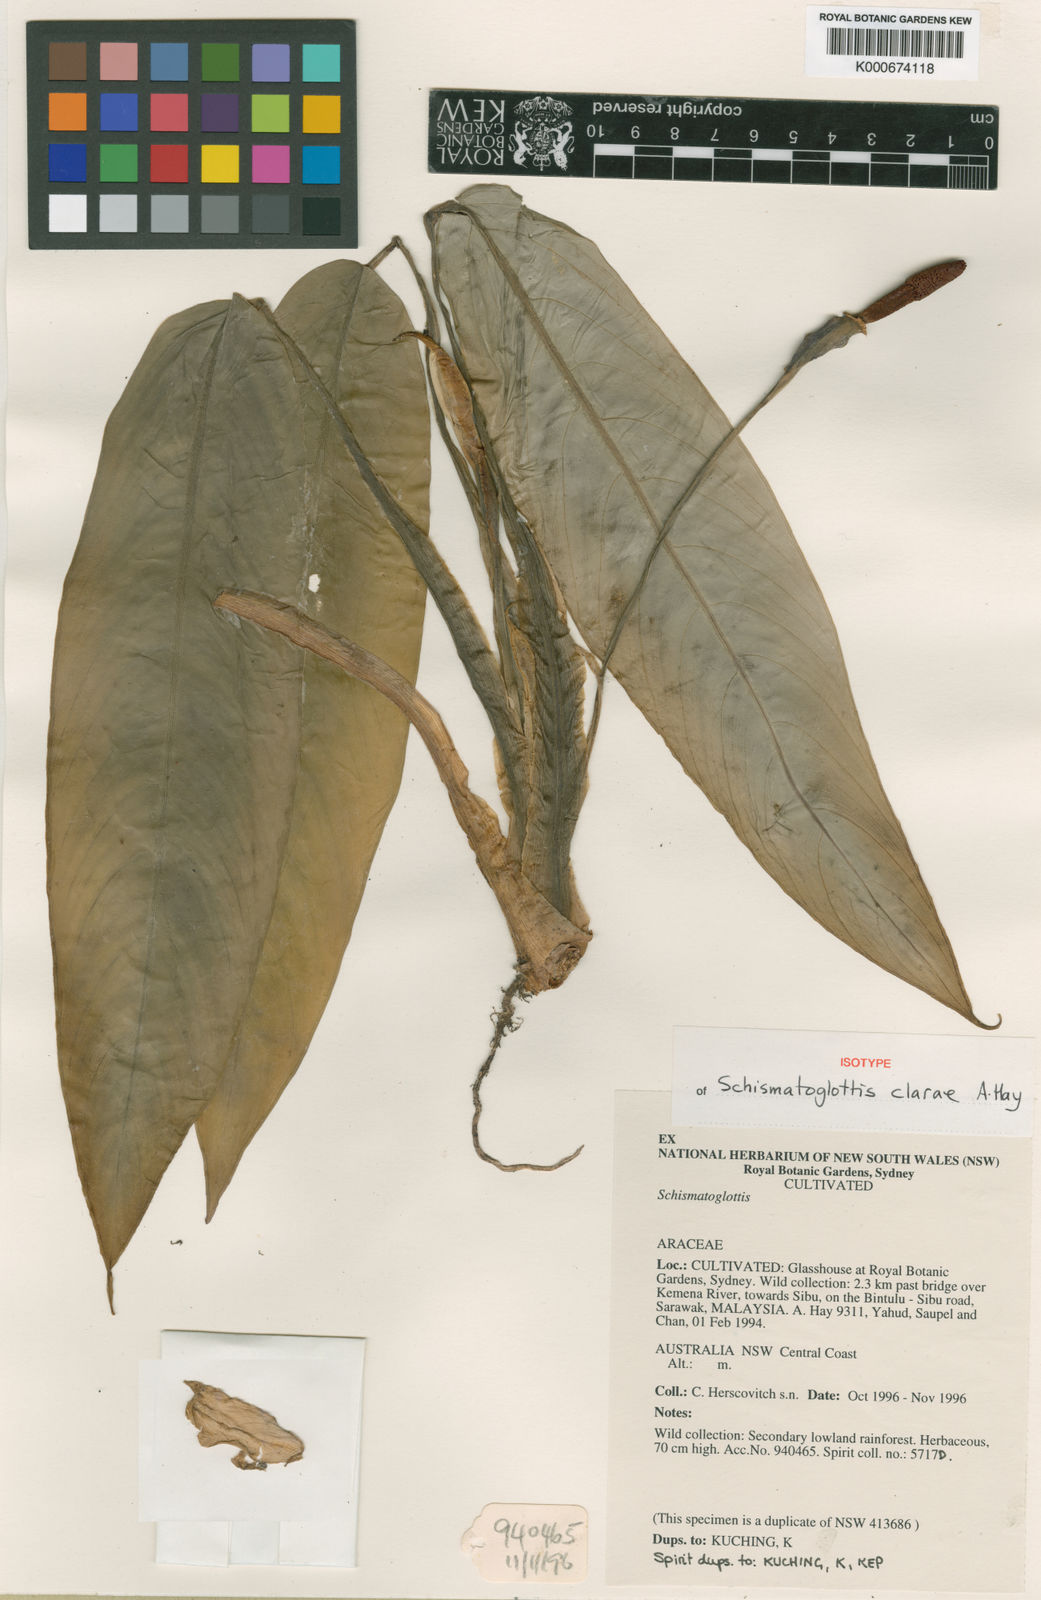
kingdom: Plantae
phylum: Tracheophyta
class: Liliopsida
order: Alismatales
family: Araceae
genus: Schismatoglottis
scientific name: Schismatoglottis clarae
